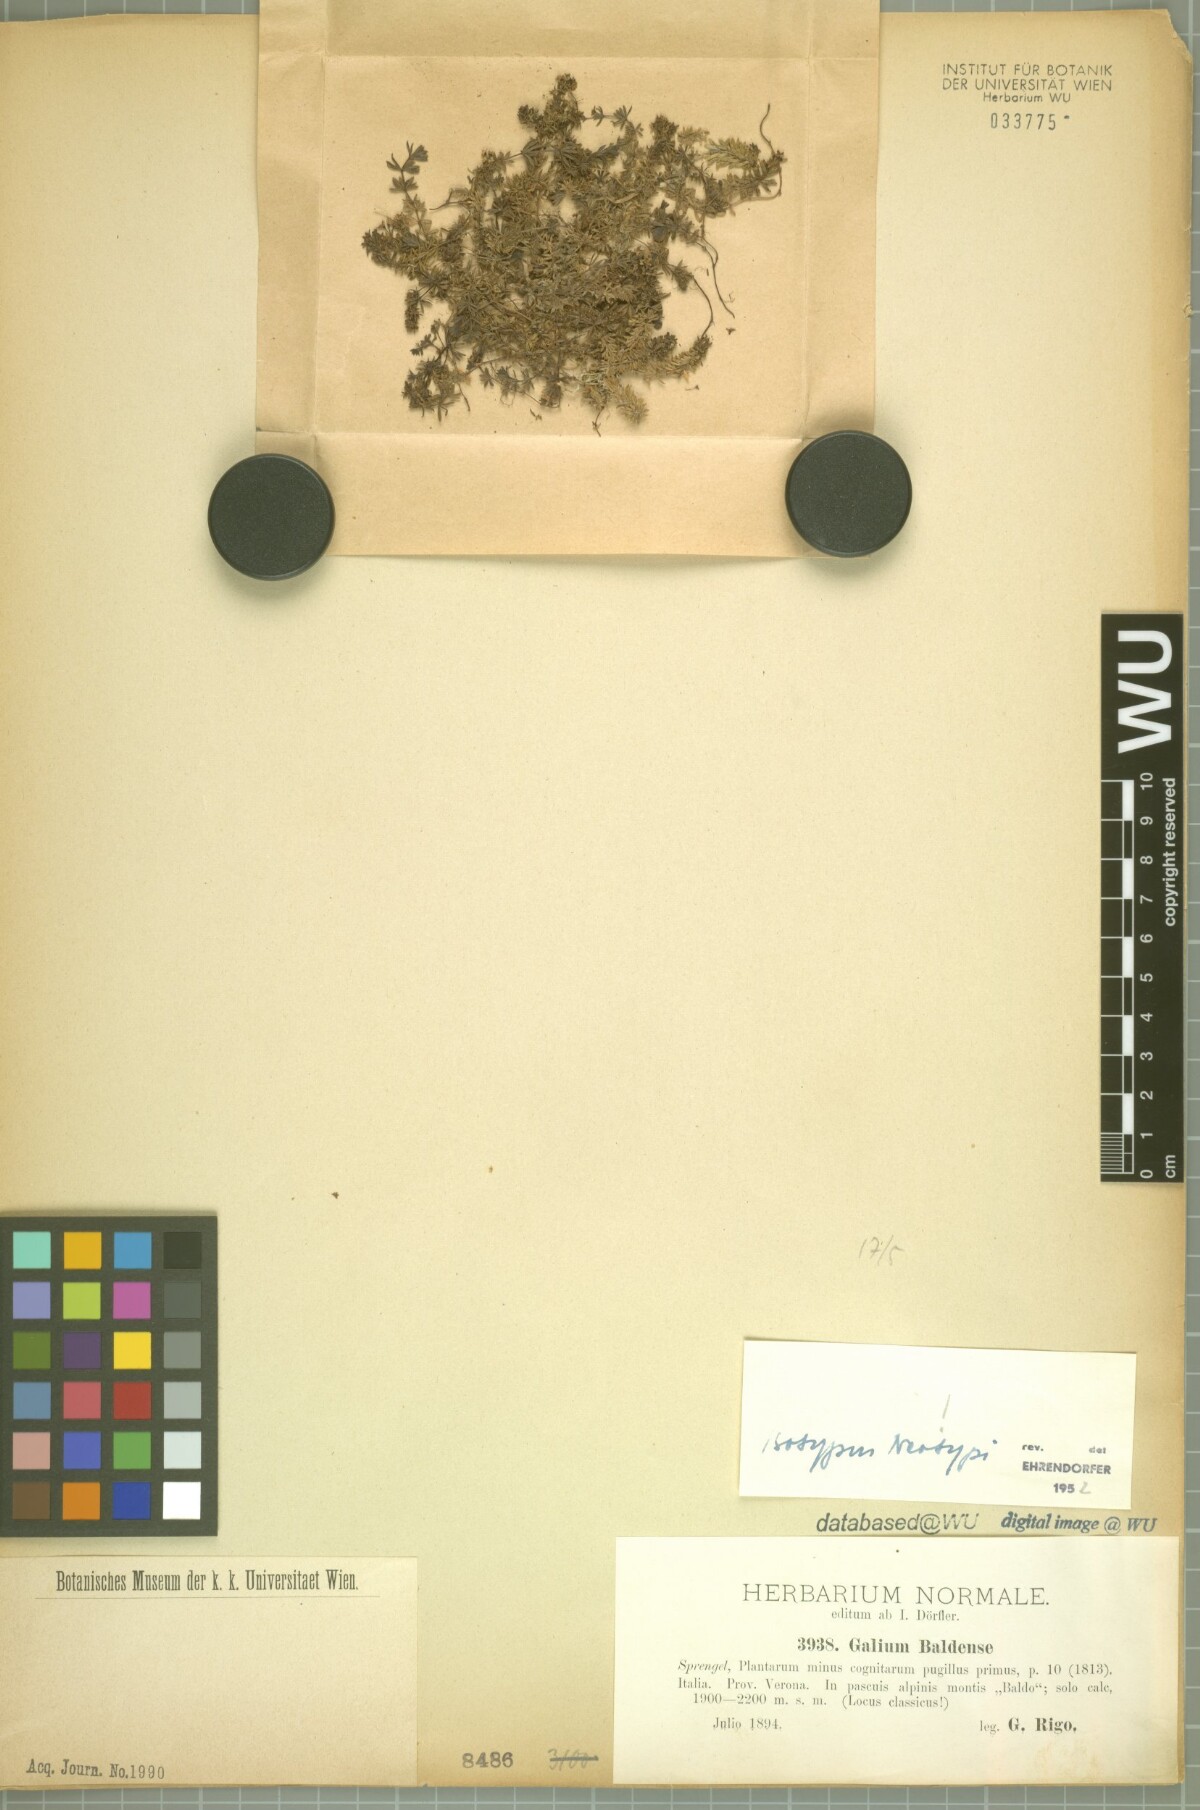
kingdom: Plantae
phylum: Tracheophyta
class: Magnoliopsida
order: Gentianales
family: Rubiaceae
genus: Galium
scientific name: Galium baldense
